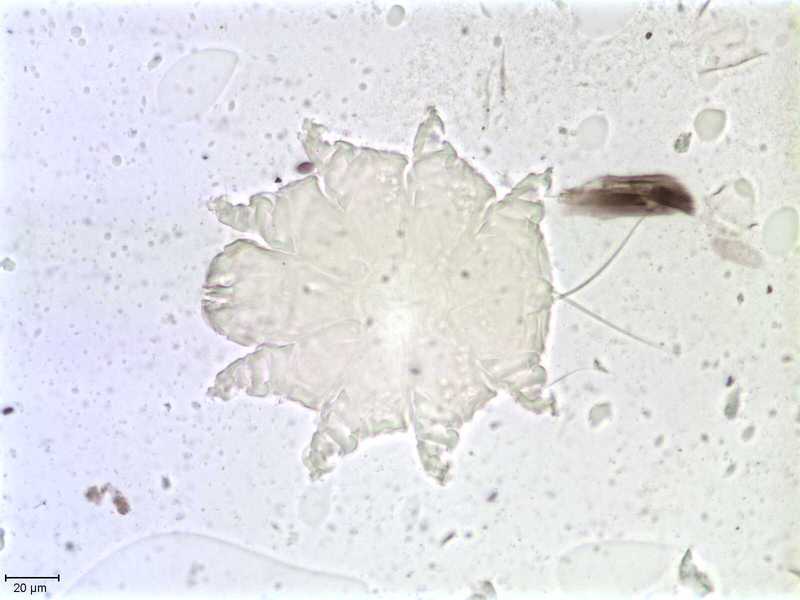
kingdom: Animalia
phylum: Arthropoda
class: Arachnida
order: Trombidiformes
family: Psorergatidae
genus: Psorobia
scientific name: Psorobia mustelae
